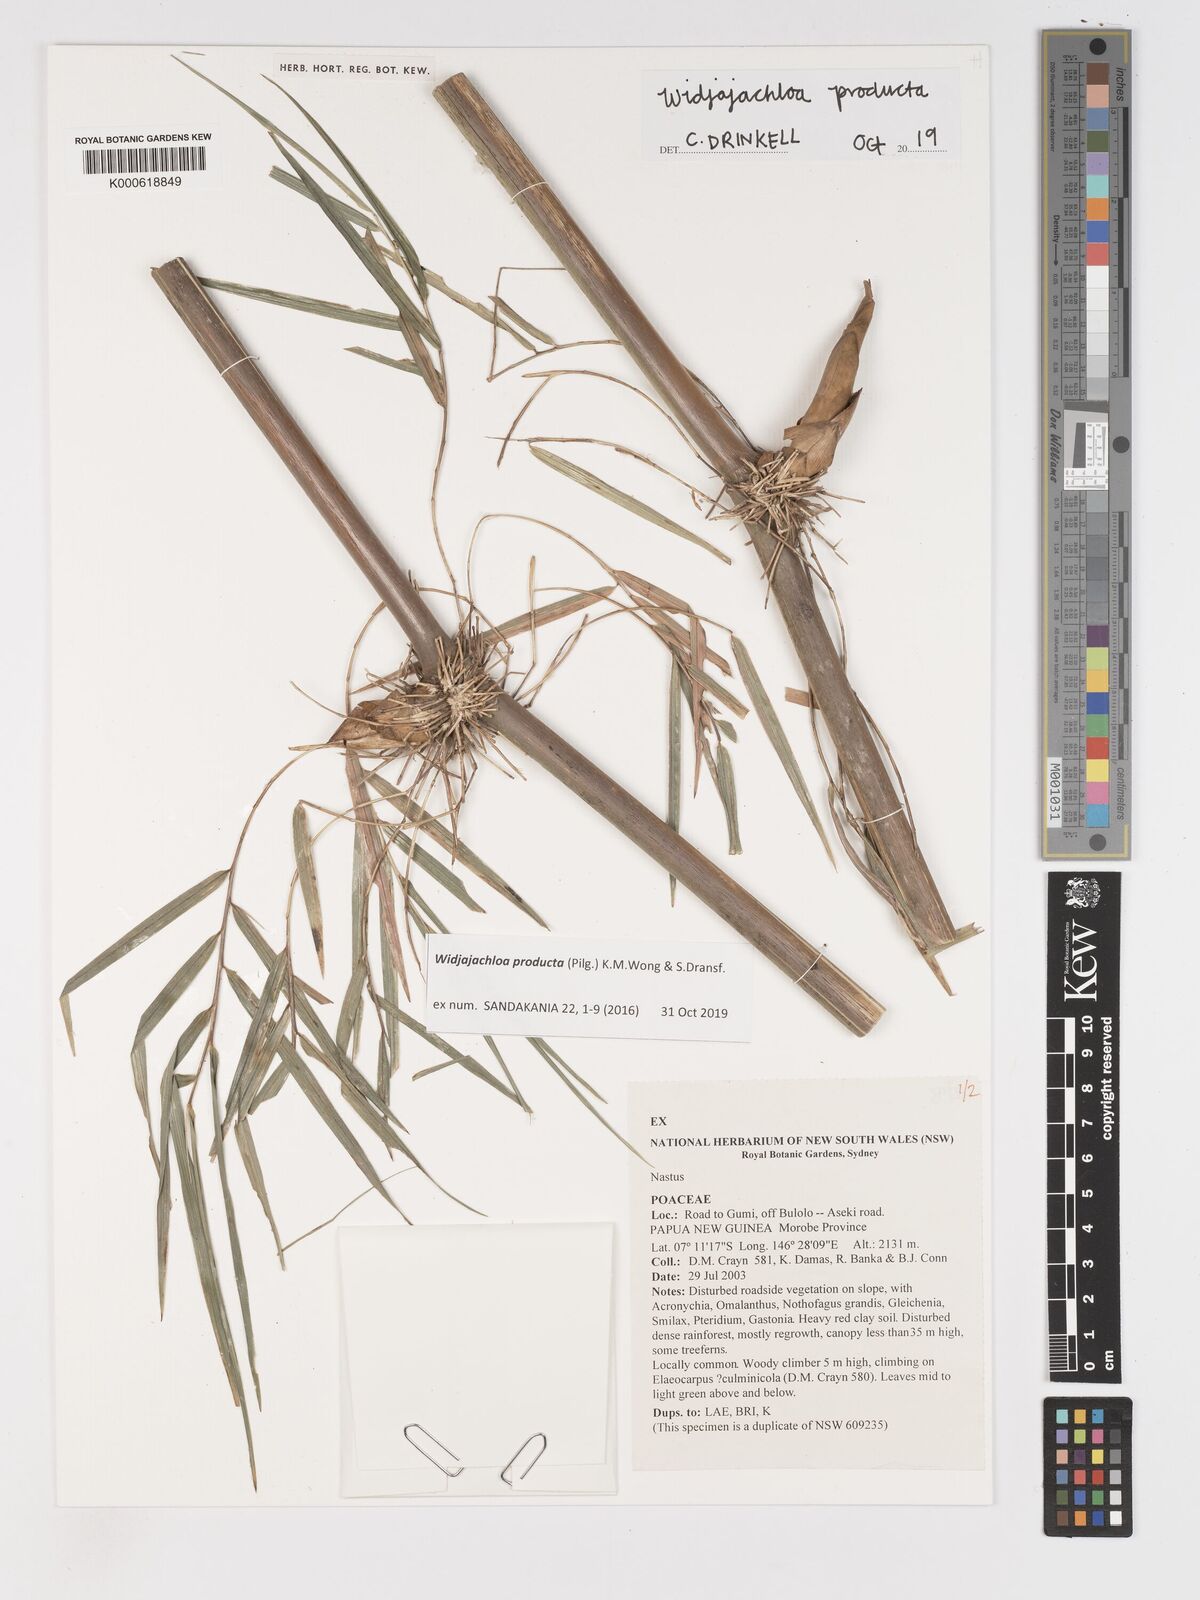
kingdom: Plantae
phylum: Tracheophyta
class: Liliopsida
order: Poales
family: Poaceae
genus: Widjajachloa
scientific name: Widjajachloa producta
